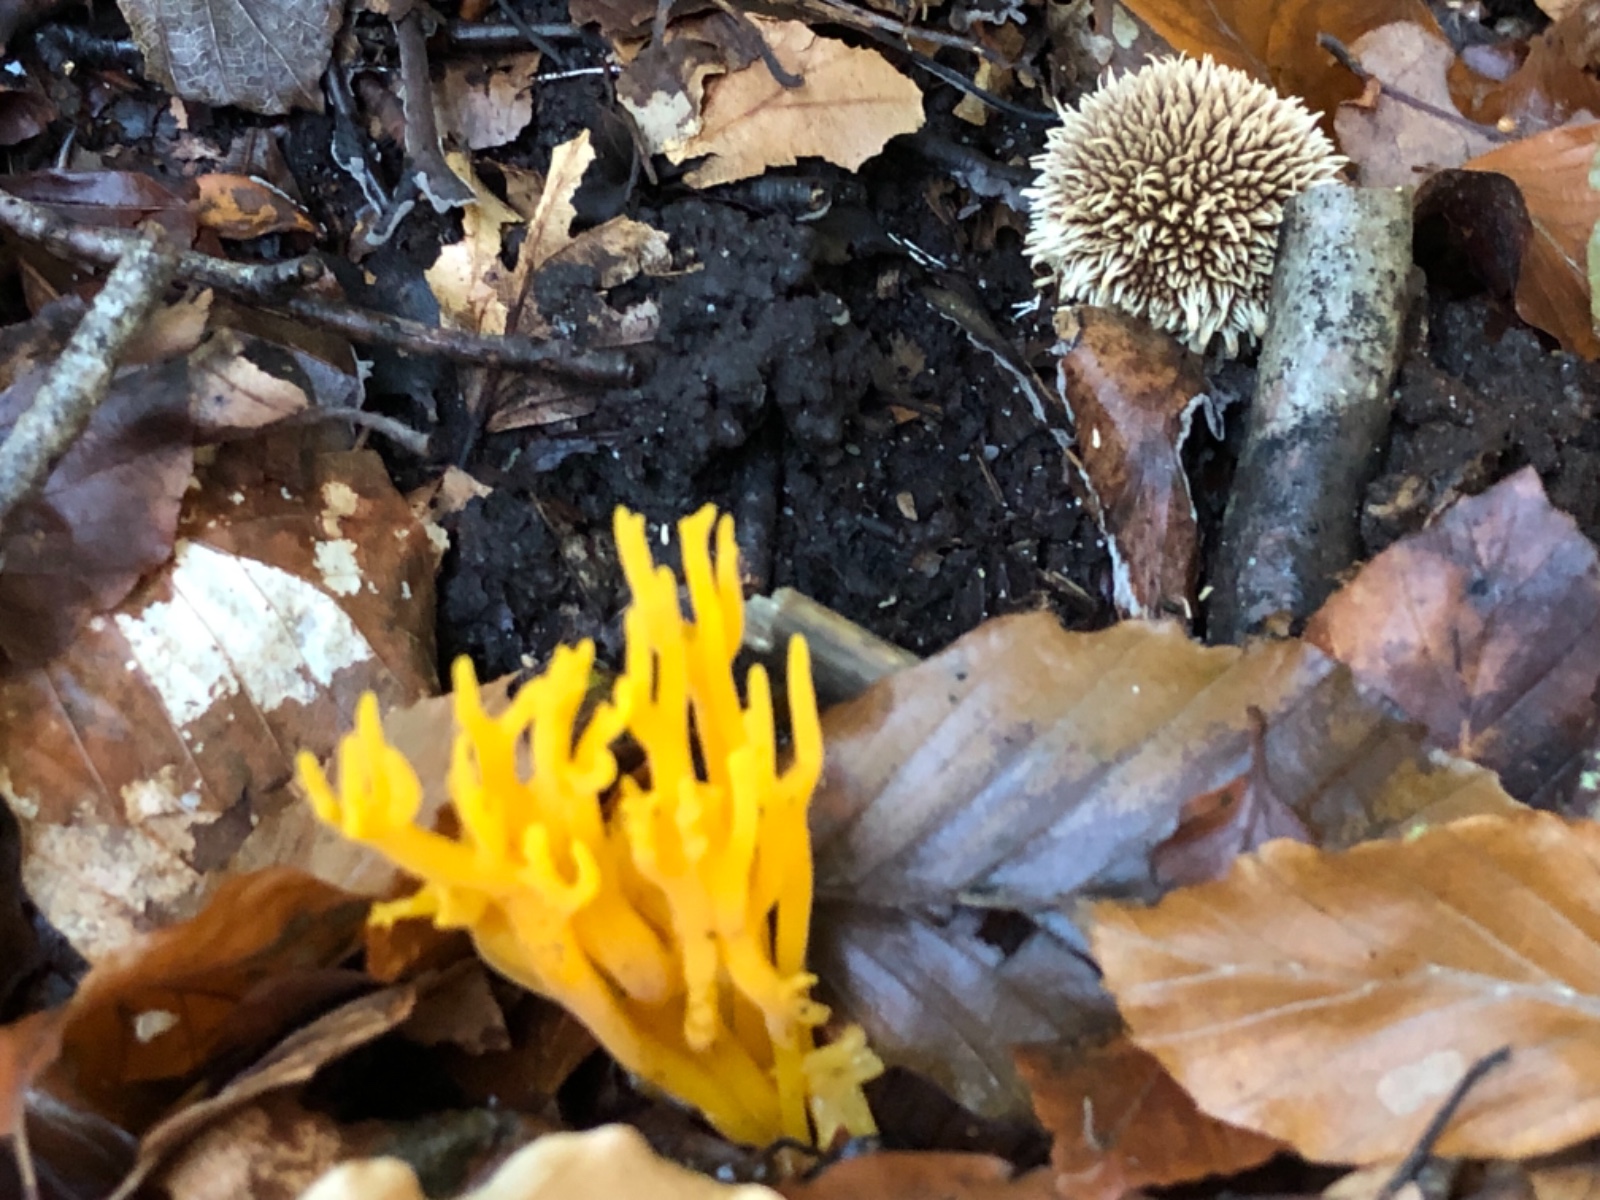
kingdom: Fungi
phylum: Basidiomycota
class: Dacrymycetes
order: Dacrymycetales
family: Dacrymycetaceae
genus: Calocera
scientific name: Calocera viscosa
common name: almindelig guldgaffel
